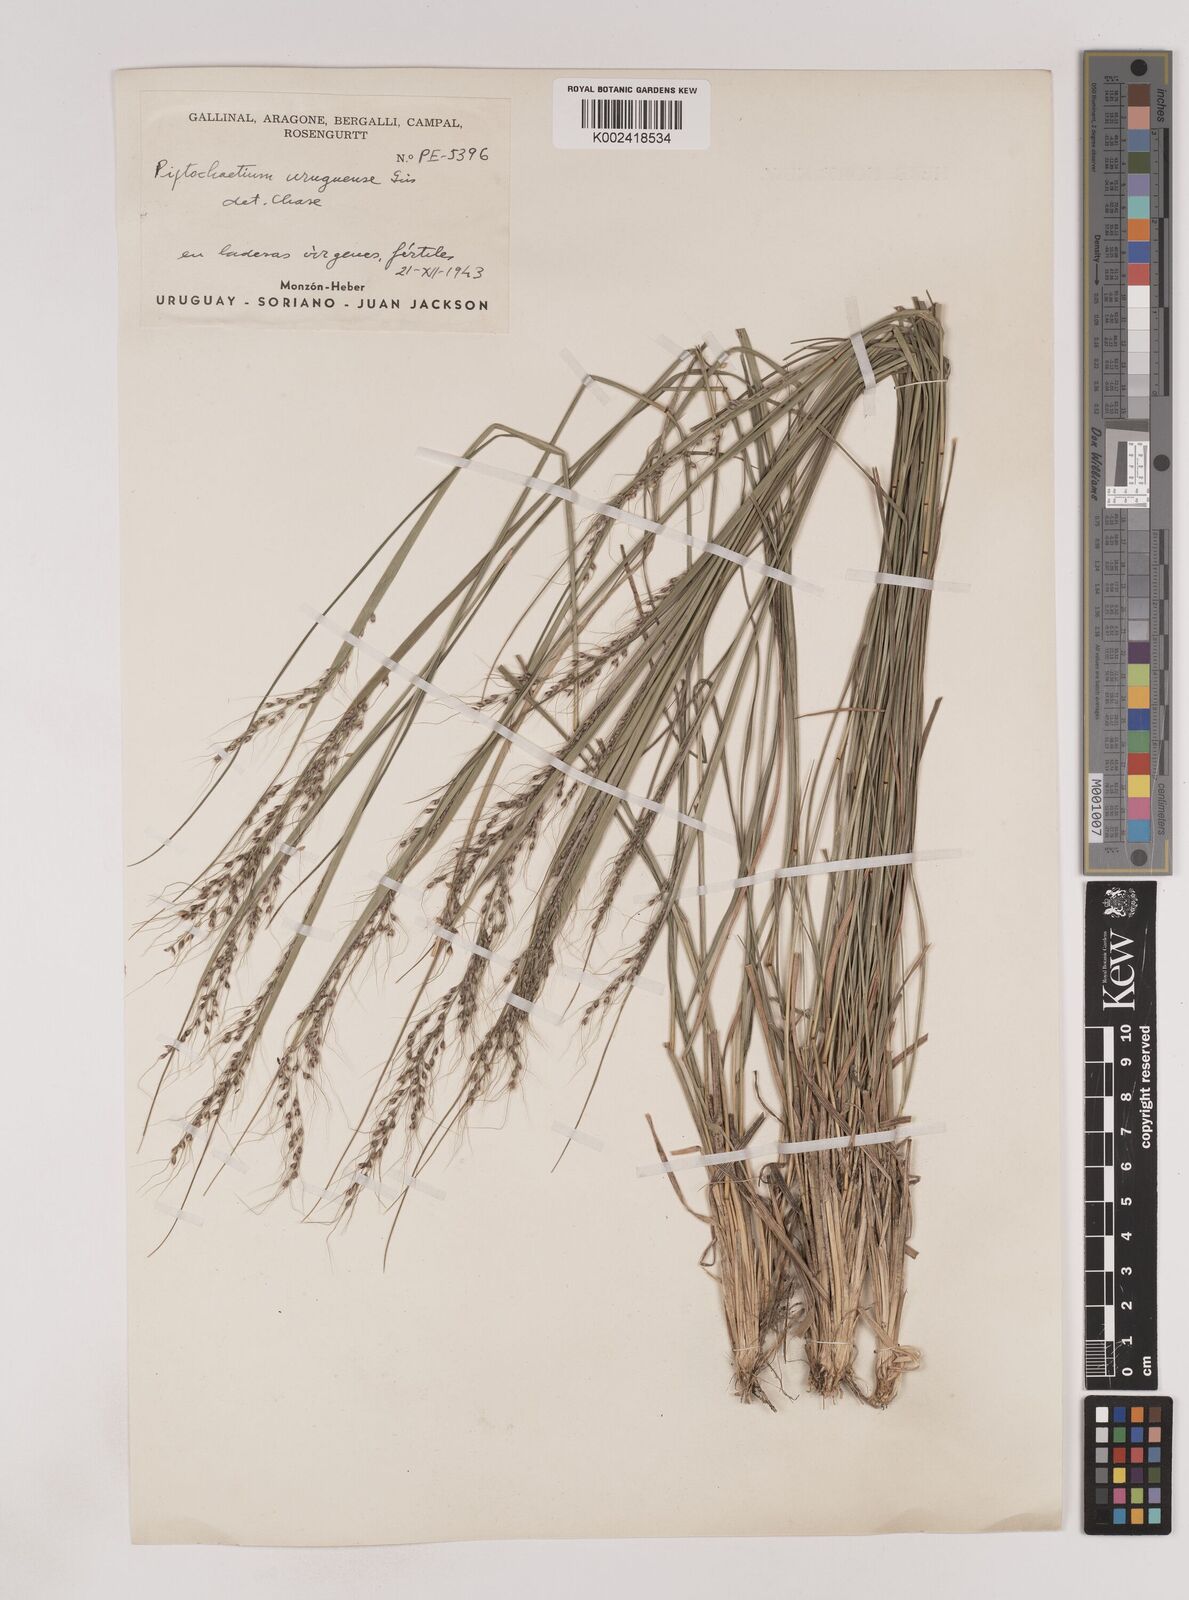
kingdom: Plantae
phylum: Tracheophyta
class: Liliopsida
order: Poales
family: Poaceae
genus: Piptochaetium
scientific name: Piptochaetium uruguense
